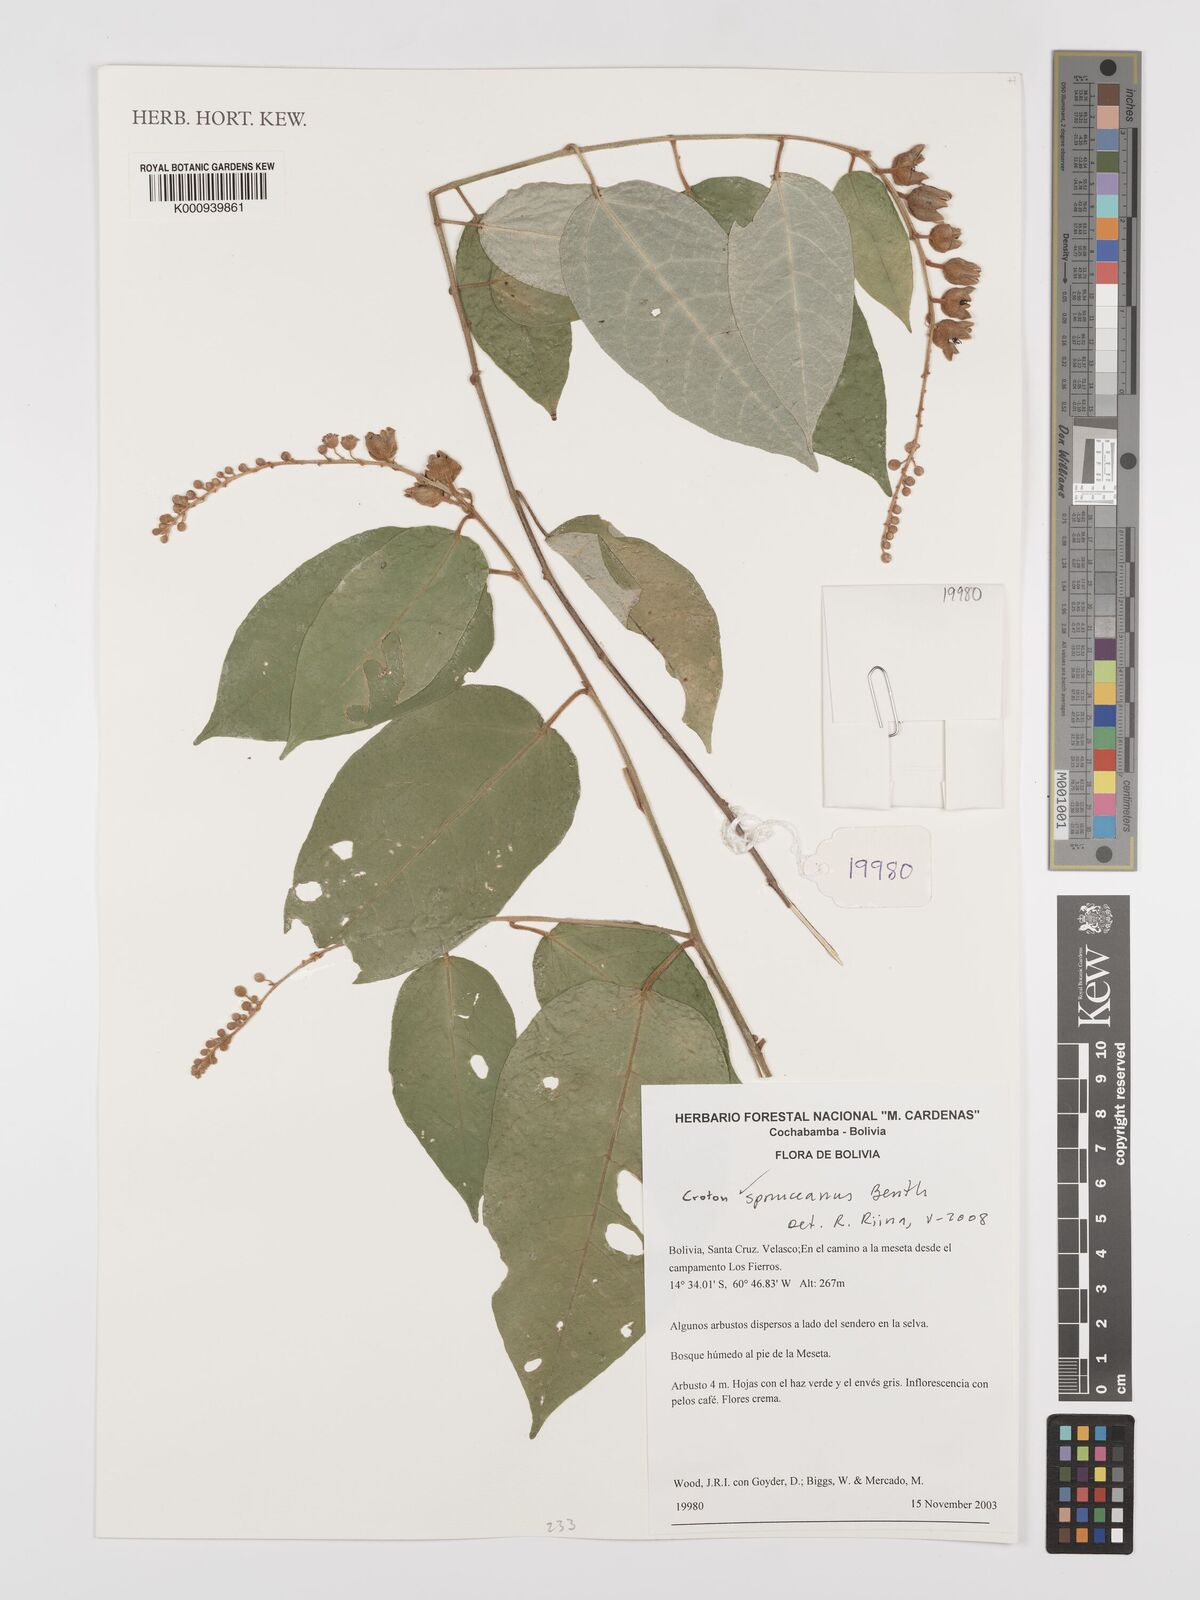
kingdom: Plantae
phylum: Tracheophyta
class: Magnoliopsida
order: Malpighiales
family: Euphorbiaceae
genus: Croton
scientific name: Croton spruceanus
